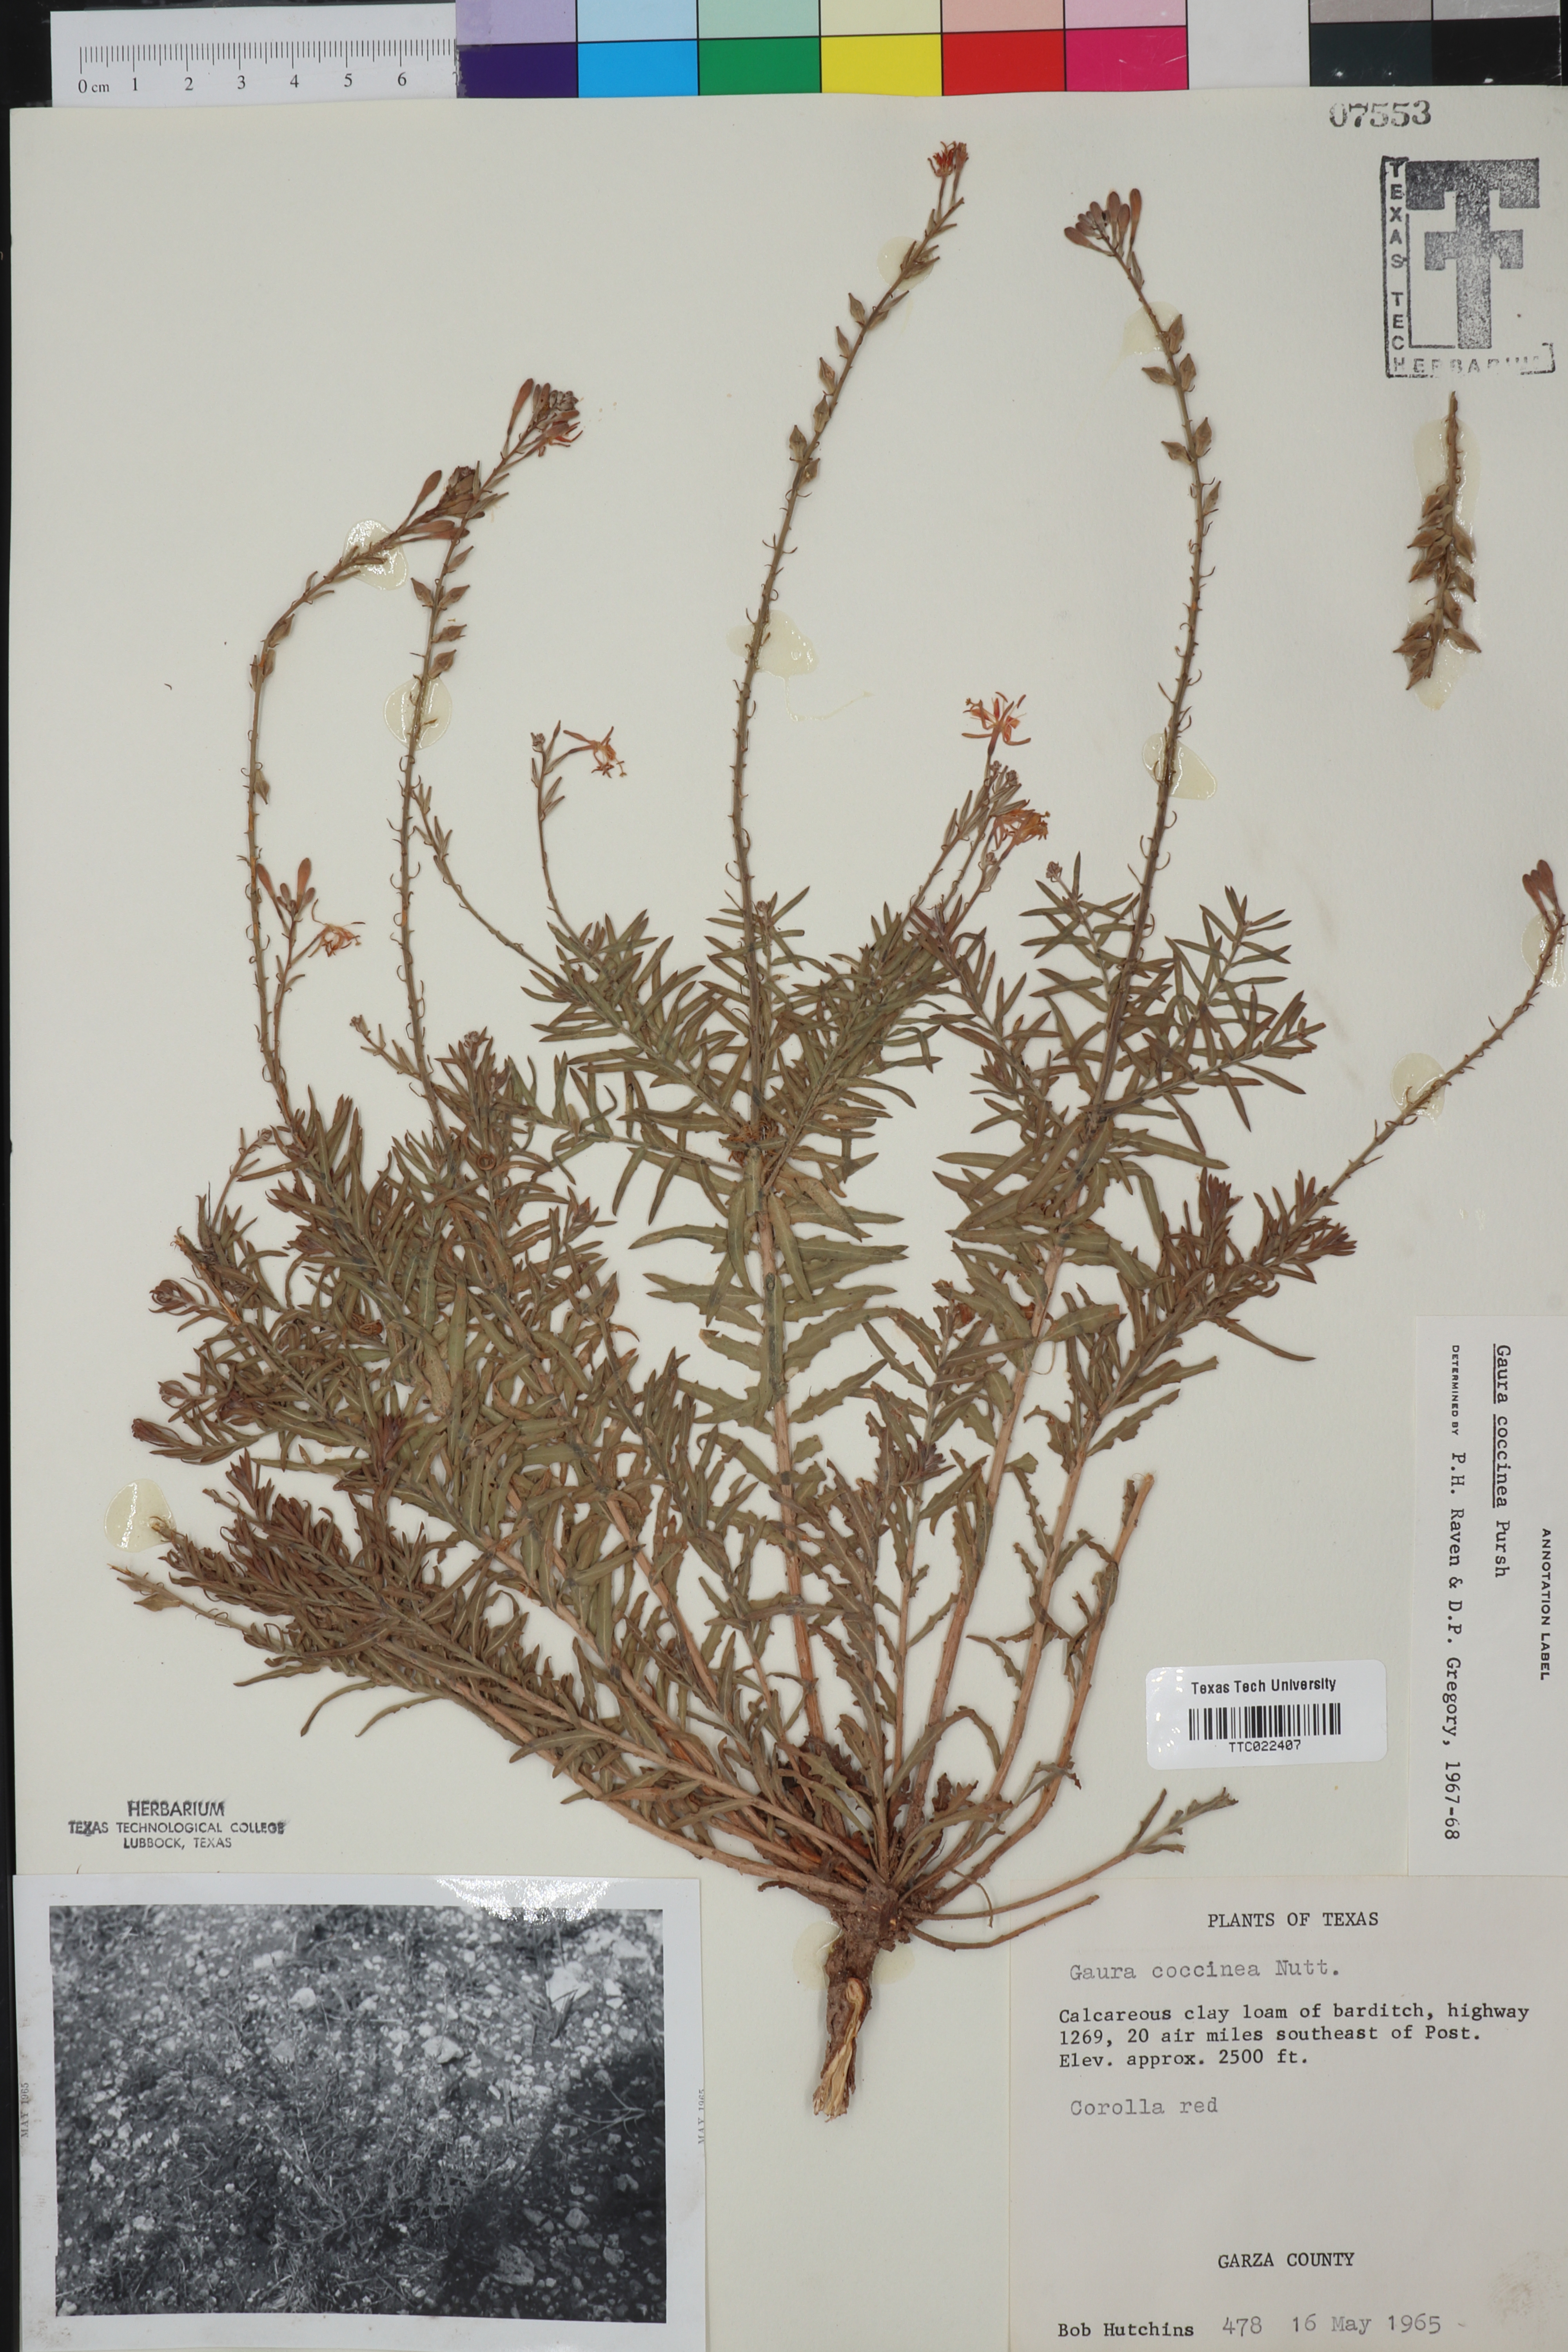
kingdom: Plantae
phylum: Tracheophyta
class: Magnoliopsida
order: Myrtales
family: Onagraceae
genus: Oenothera
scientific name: Oenothera suffrutescens
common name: Scarlet beeblossom
